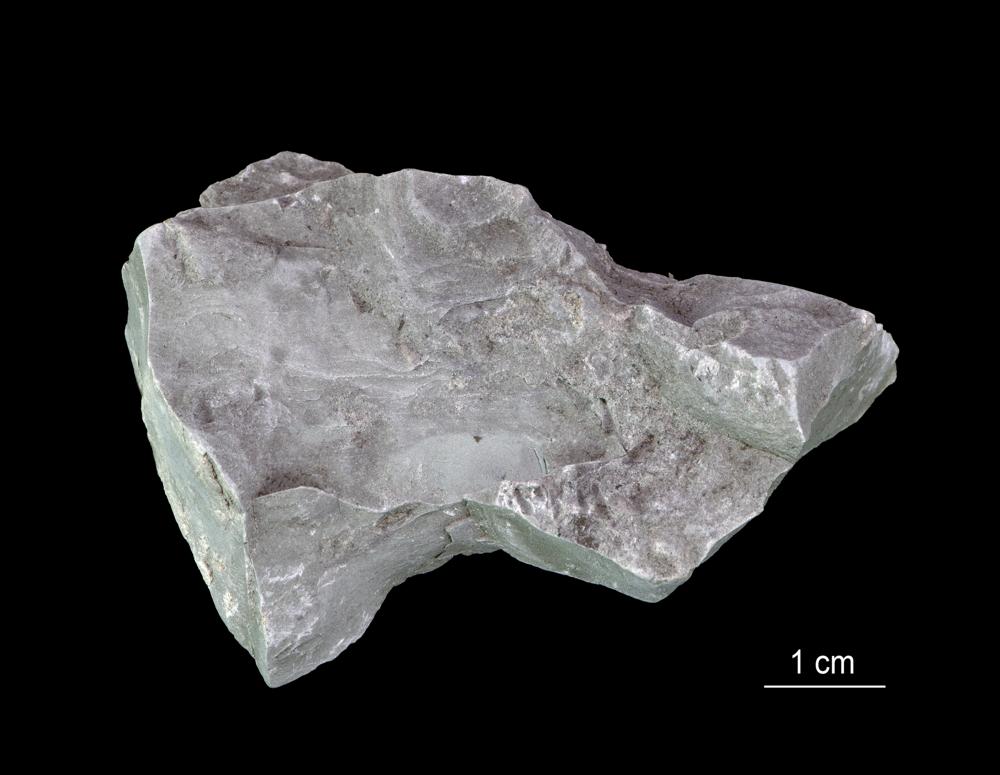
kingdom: Animalia
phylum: Annelida
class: Polychaeta
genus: Volborthella
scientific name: Volborthella tenuis
